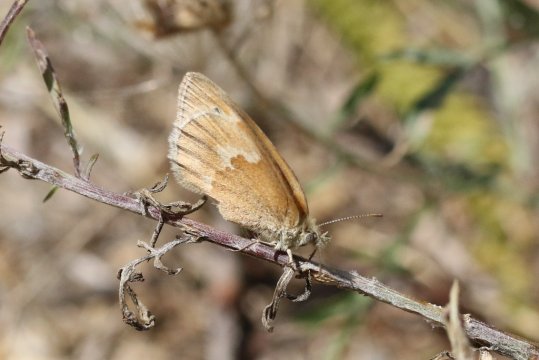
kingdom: Animalia
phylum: Arthropoda
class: Insecta
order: Lepidoptera
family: Nymphalidae
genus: Coenonympha
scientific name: Coenonympha tullia
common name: Large Heath
